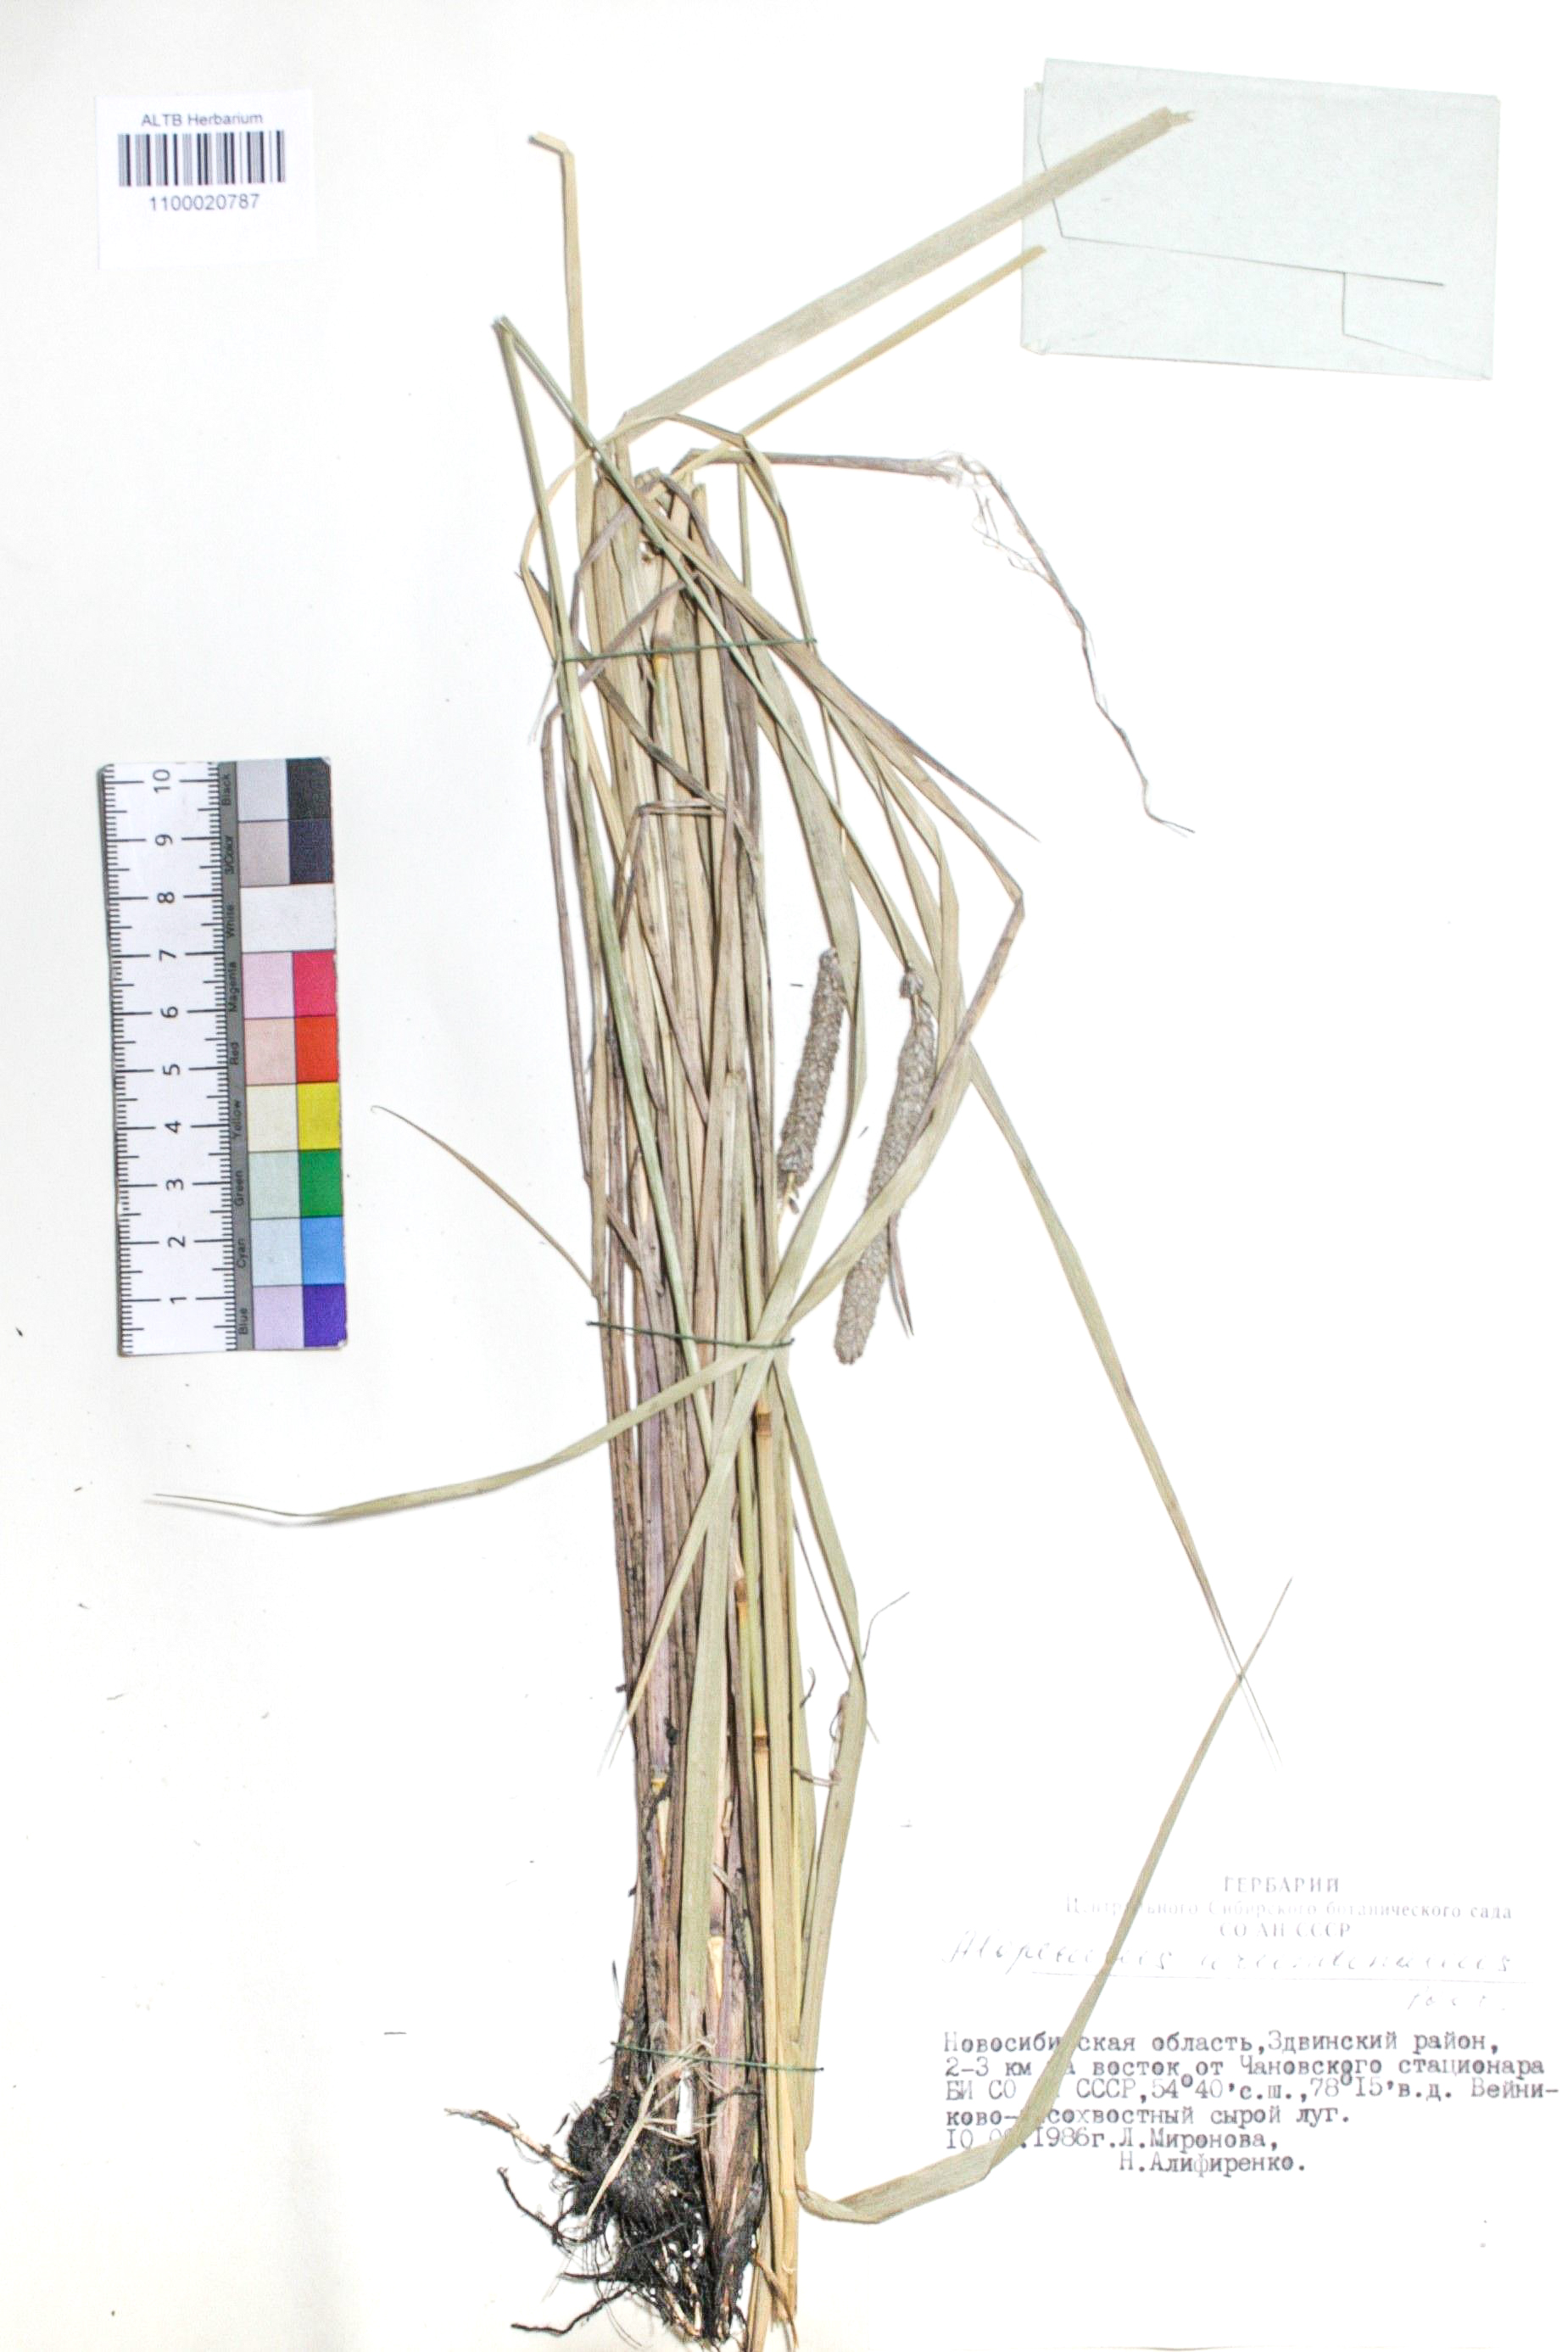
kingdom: Plantae
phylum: Tracheophyta
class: Liliopsida
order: Poales
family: Poaceae
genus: Alopecurus
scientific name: Alopecurus arundinaceus
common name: Creeping meadow foxtail
